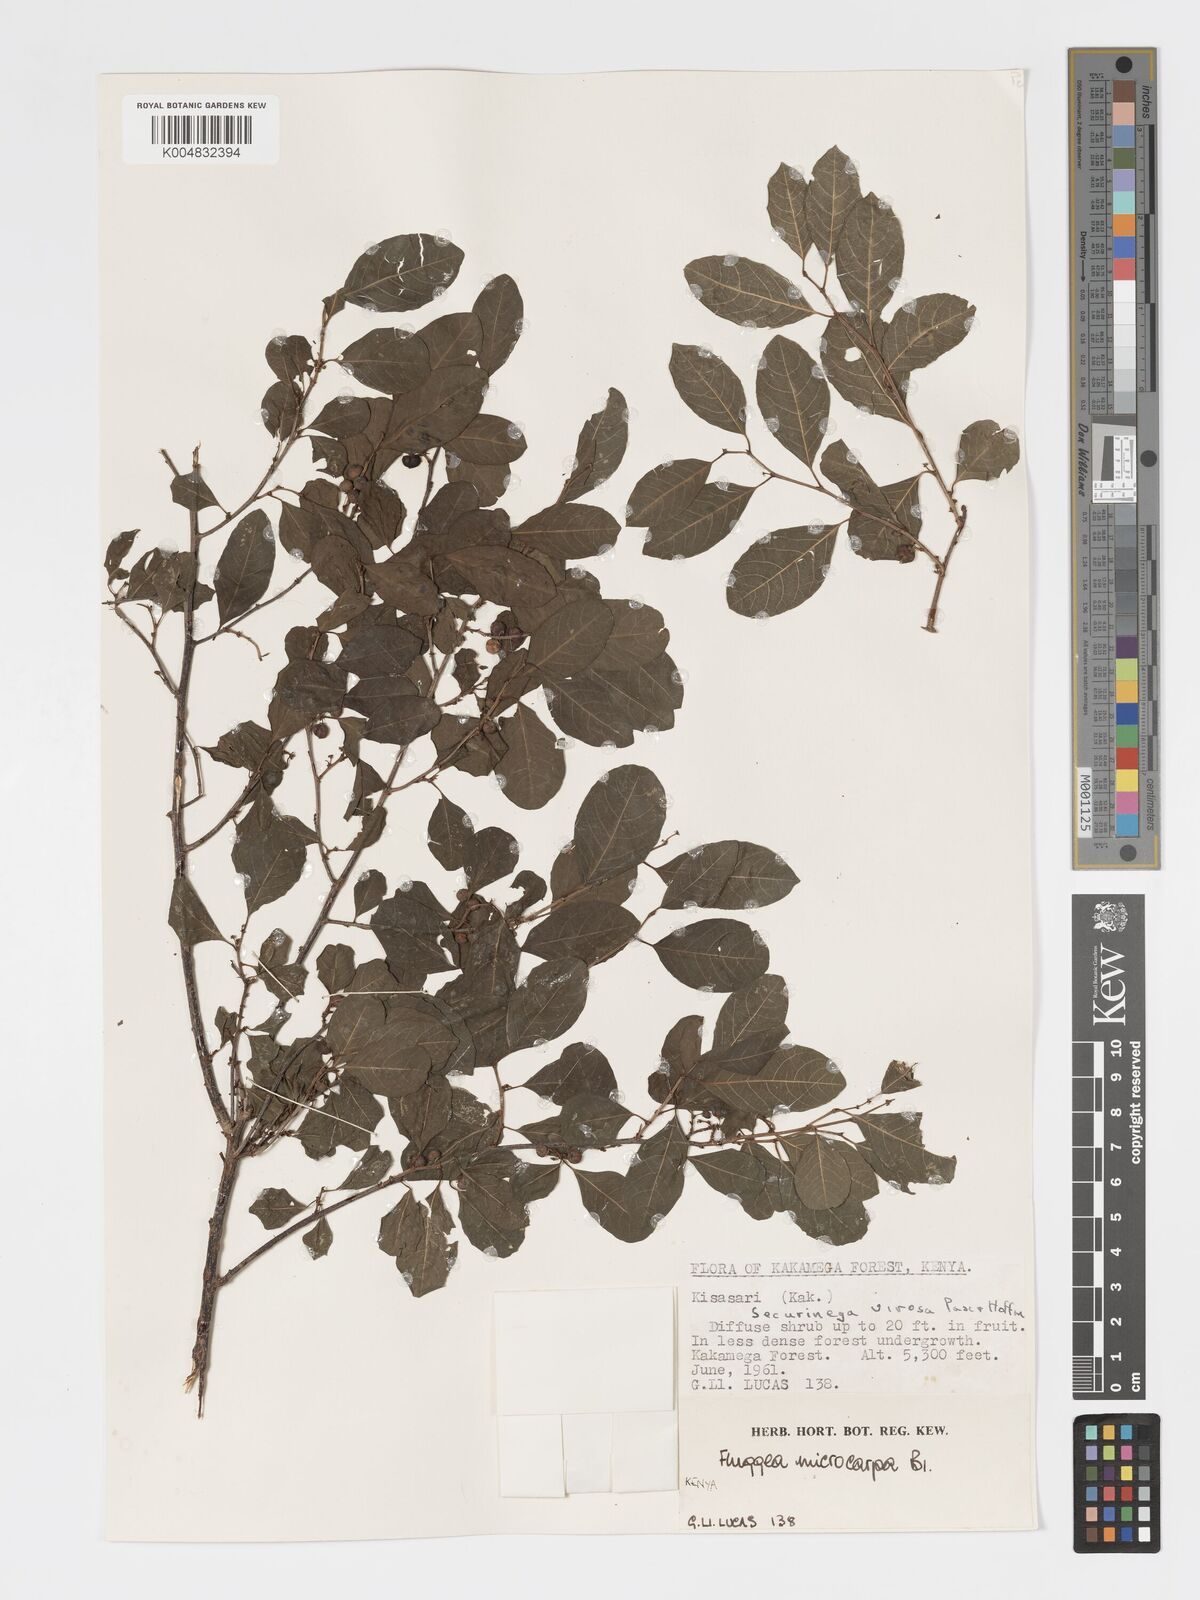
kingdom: Plantae
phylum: Tracheophyta
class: Magnoliopsida
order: Malpighiales
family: Phyllanthaceae
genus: Flueggea
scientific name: Flueggea virosa
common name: Common bushweed
